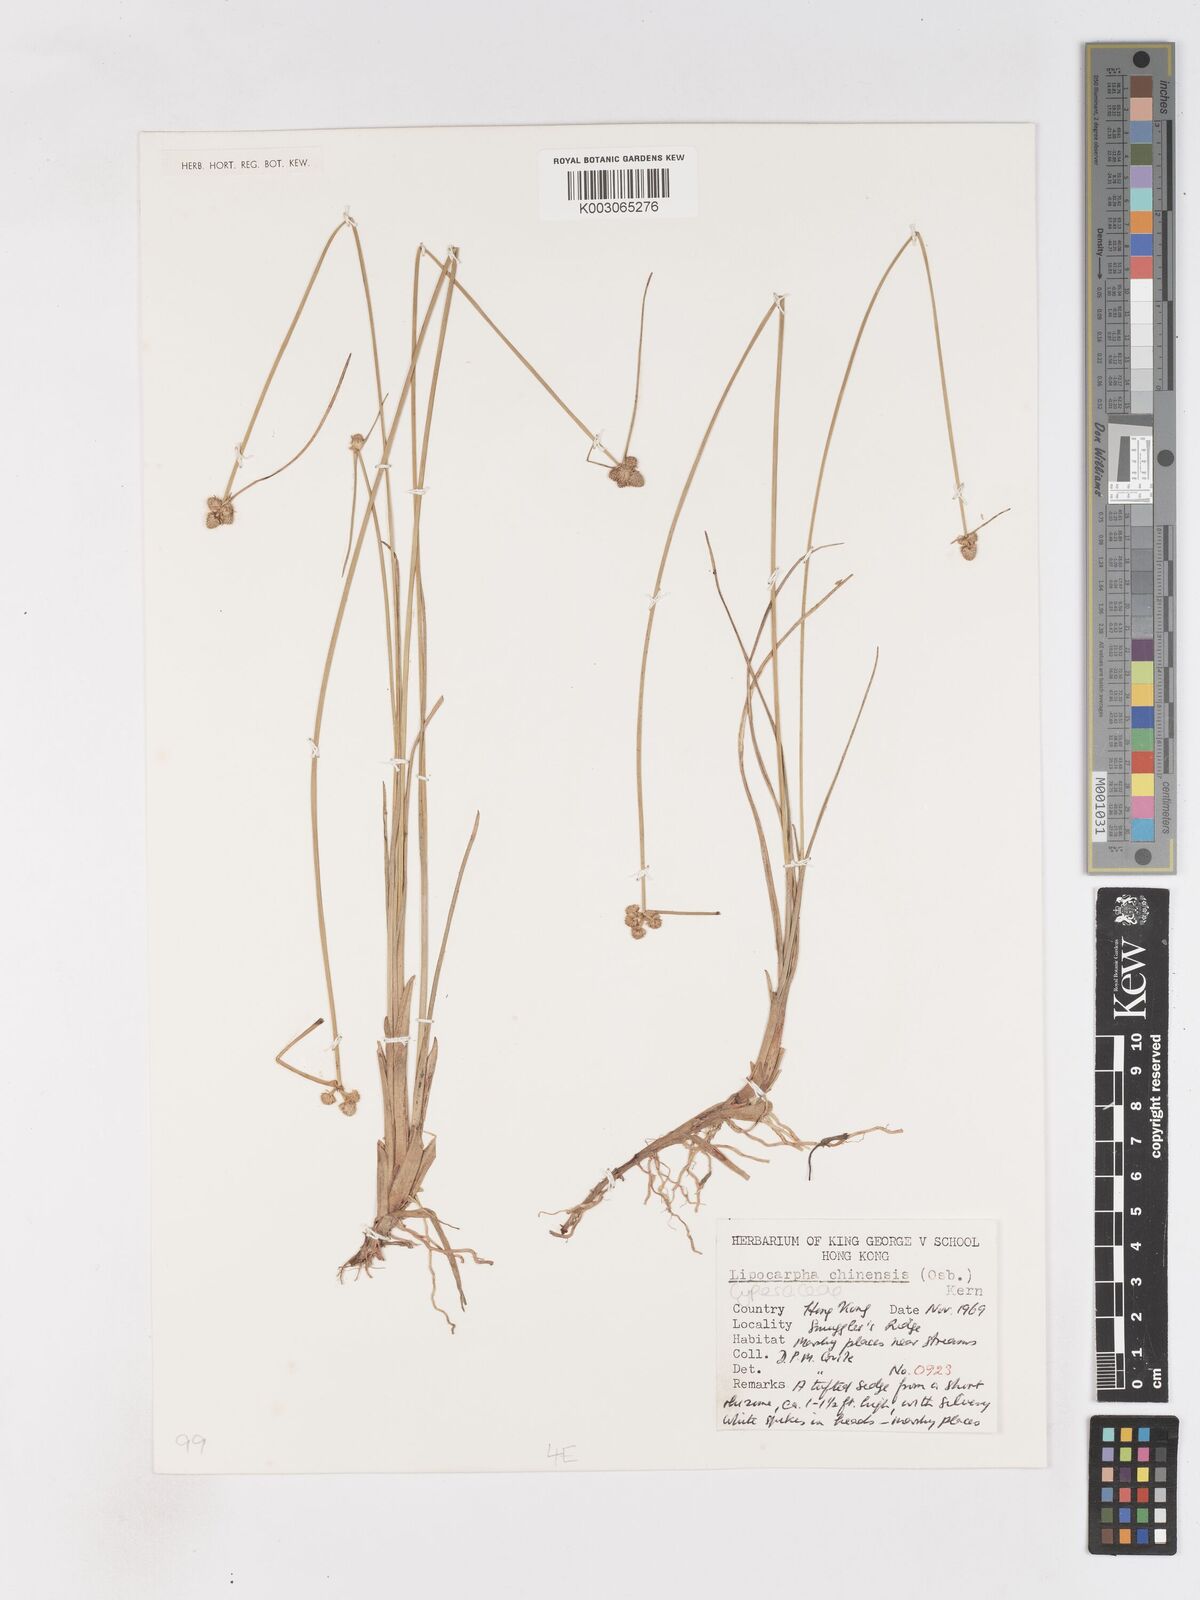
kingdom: Plantae
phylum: Tracheophyta
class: Liliopsida
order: Poales
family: Cyperaceae
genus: Cyperus
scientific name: Cyperus albescens
